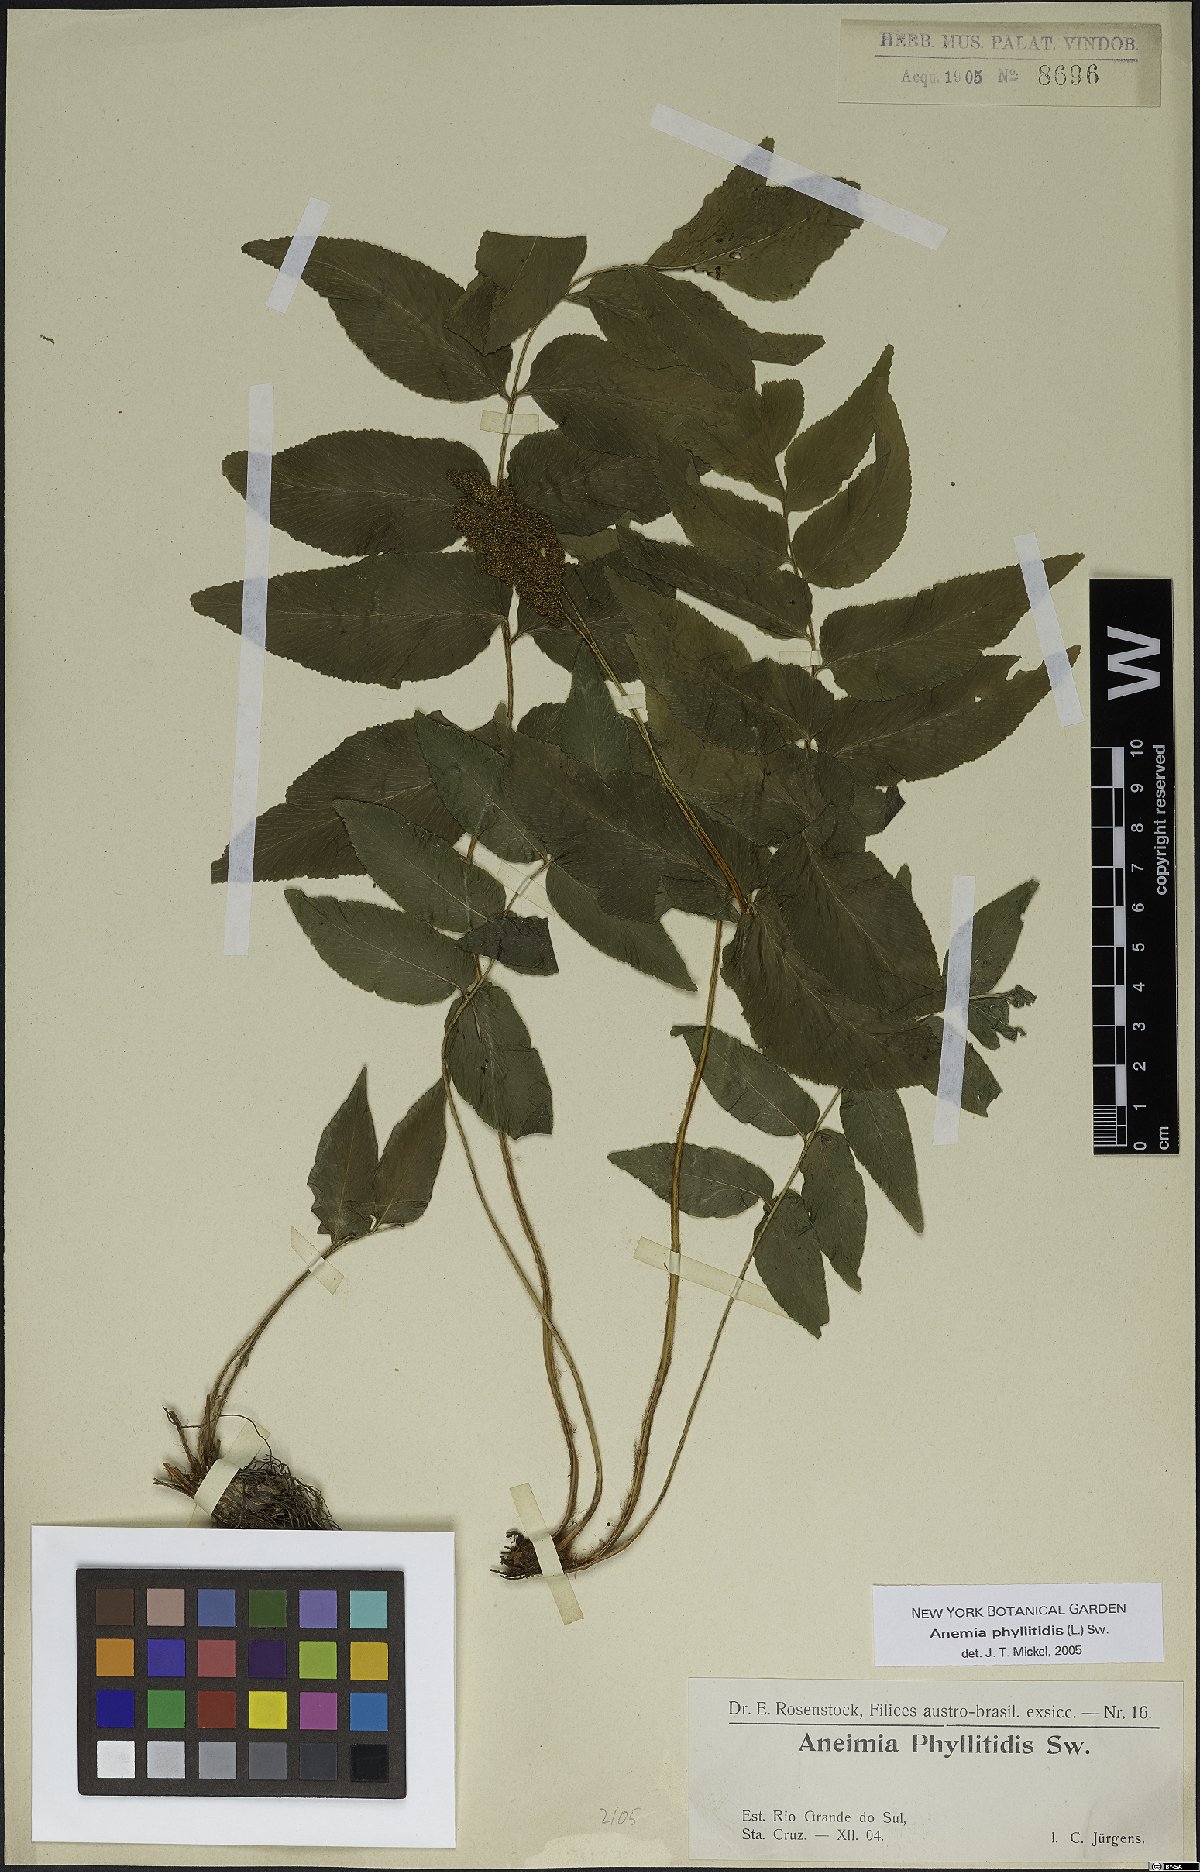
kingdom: Plantae
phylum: Tracheophyta
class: Polypodiopsida
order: Schizaeales
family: Anemiaceae
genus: Anemia
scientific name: Anemia phyllitidis
